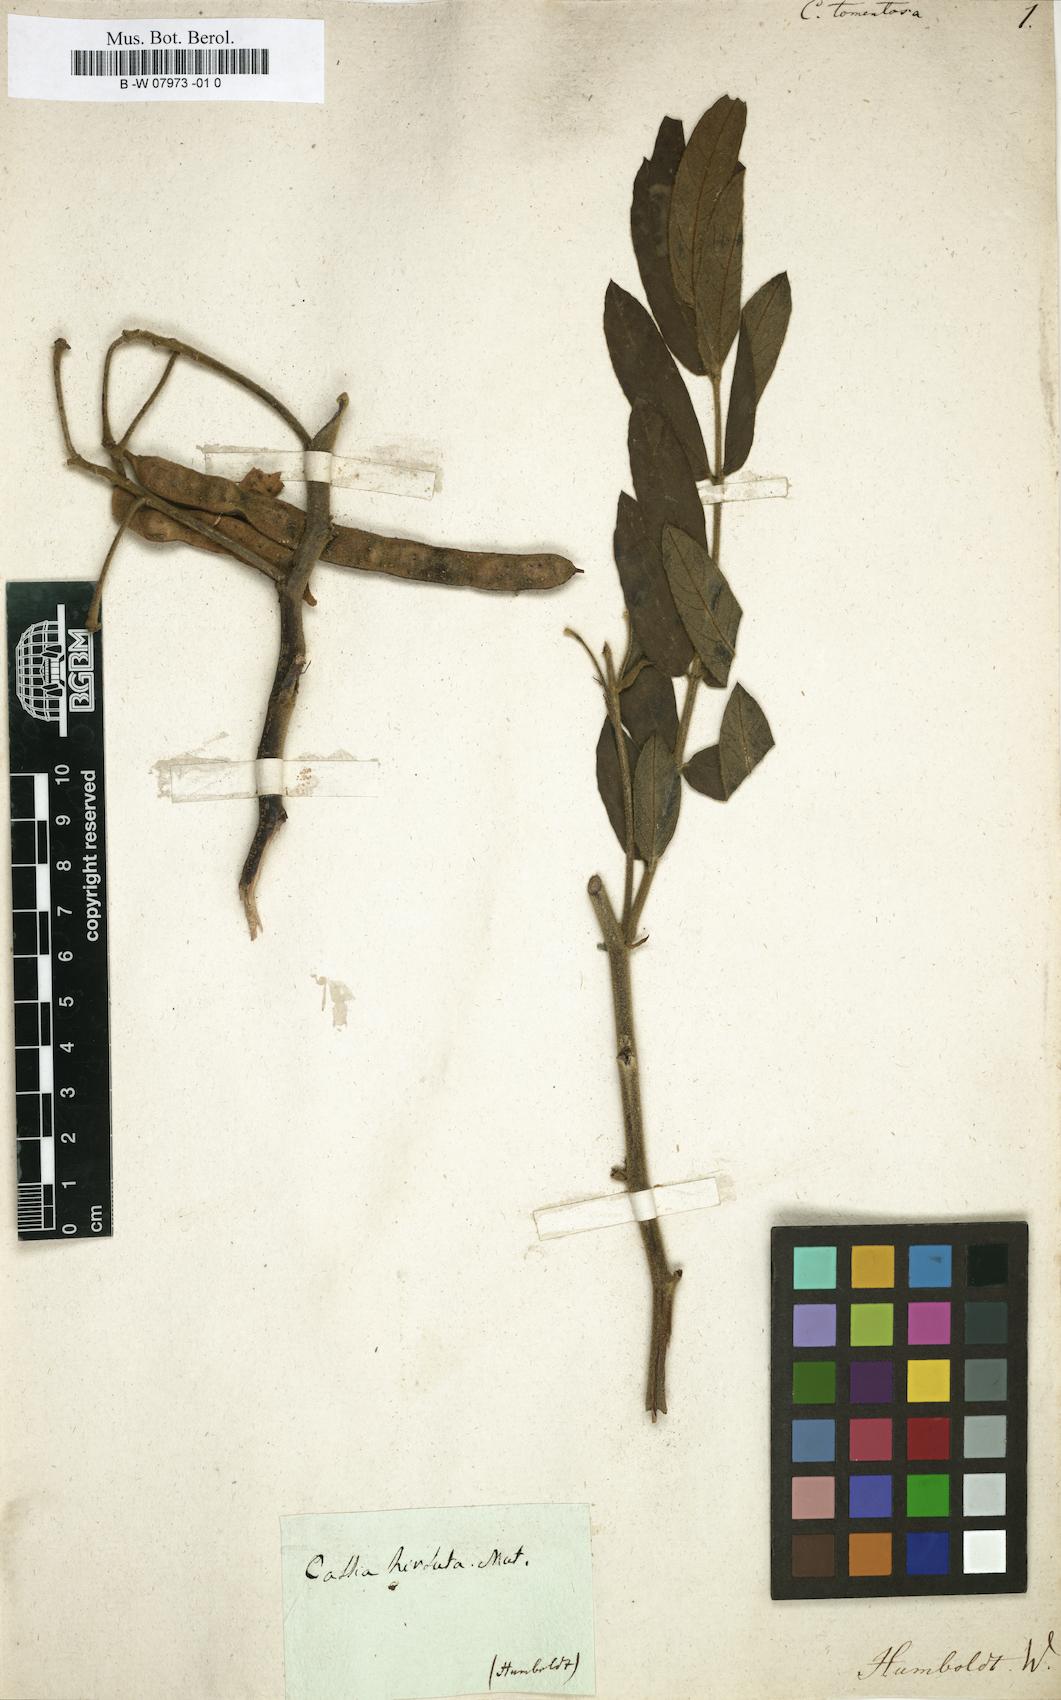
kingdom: Plantae
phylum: Tracheophyta
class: Magnoliopsida
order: Fabales
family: Fabaceae
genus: Senna
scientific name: Senna multiglandulosa
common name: Glandular senna
